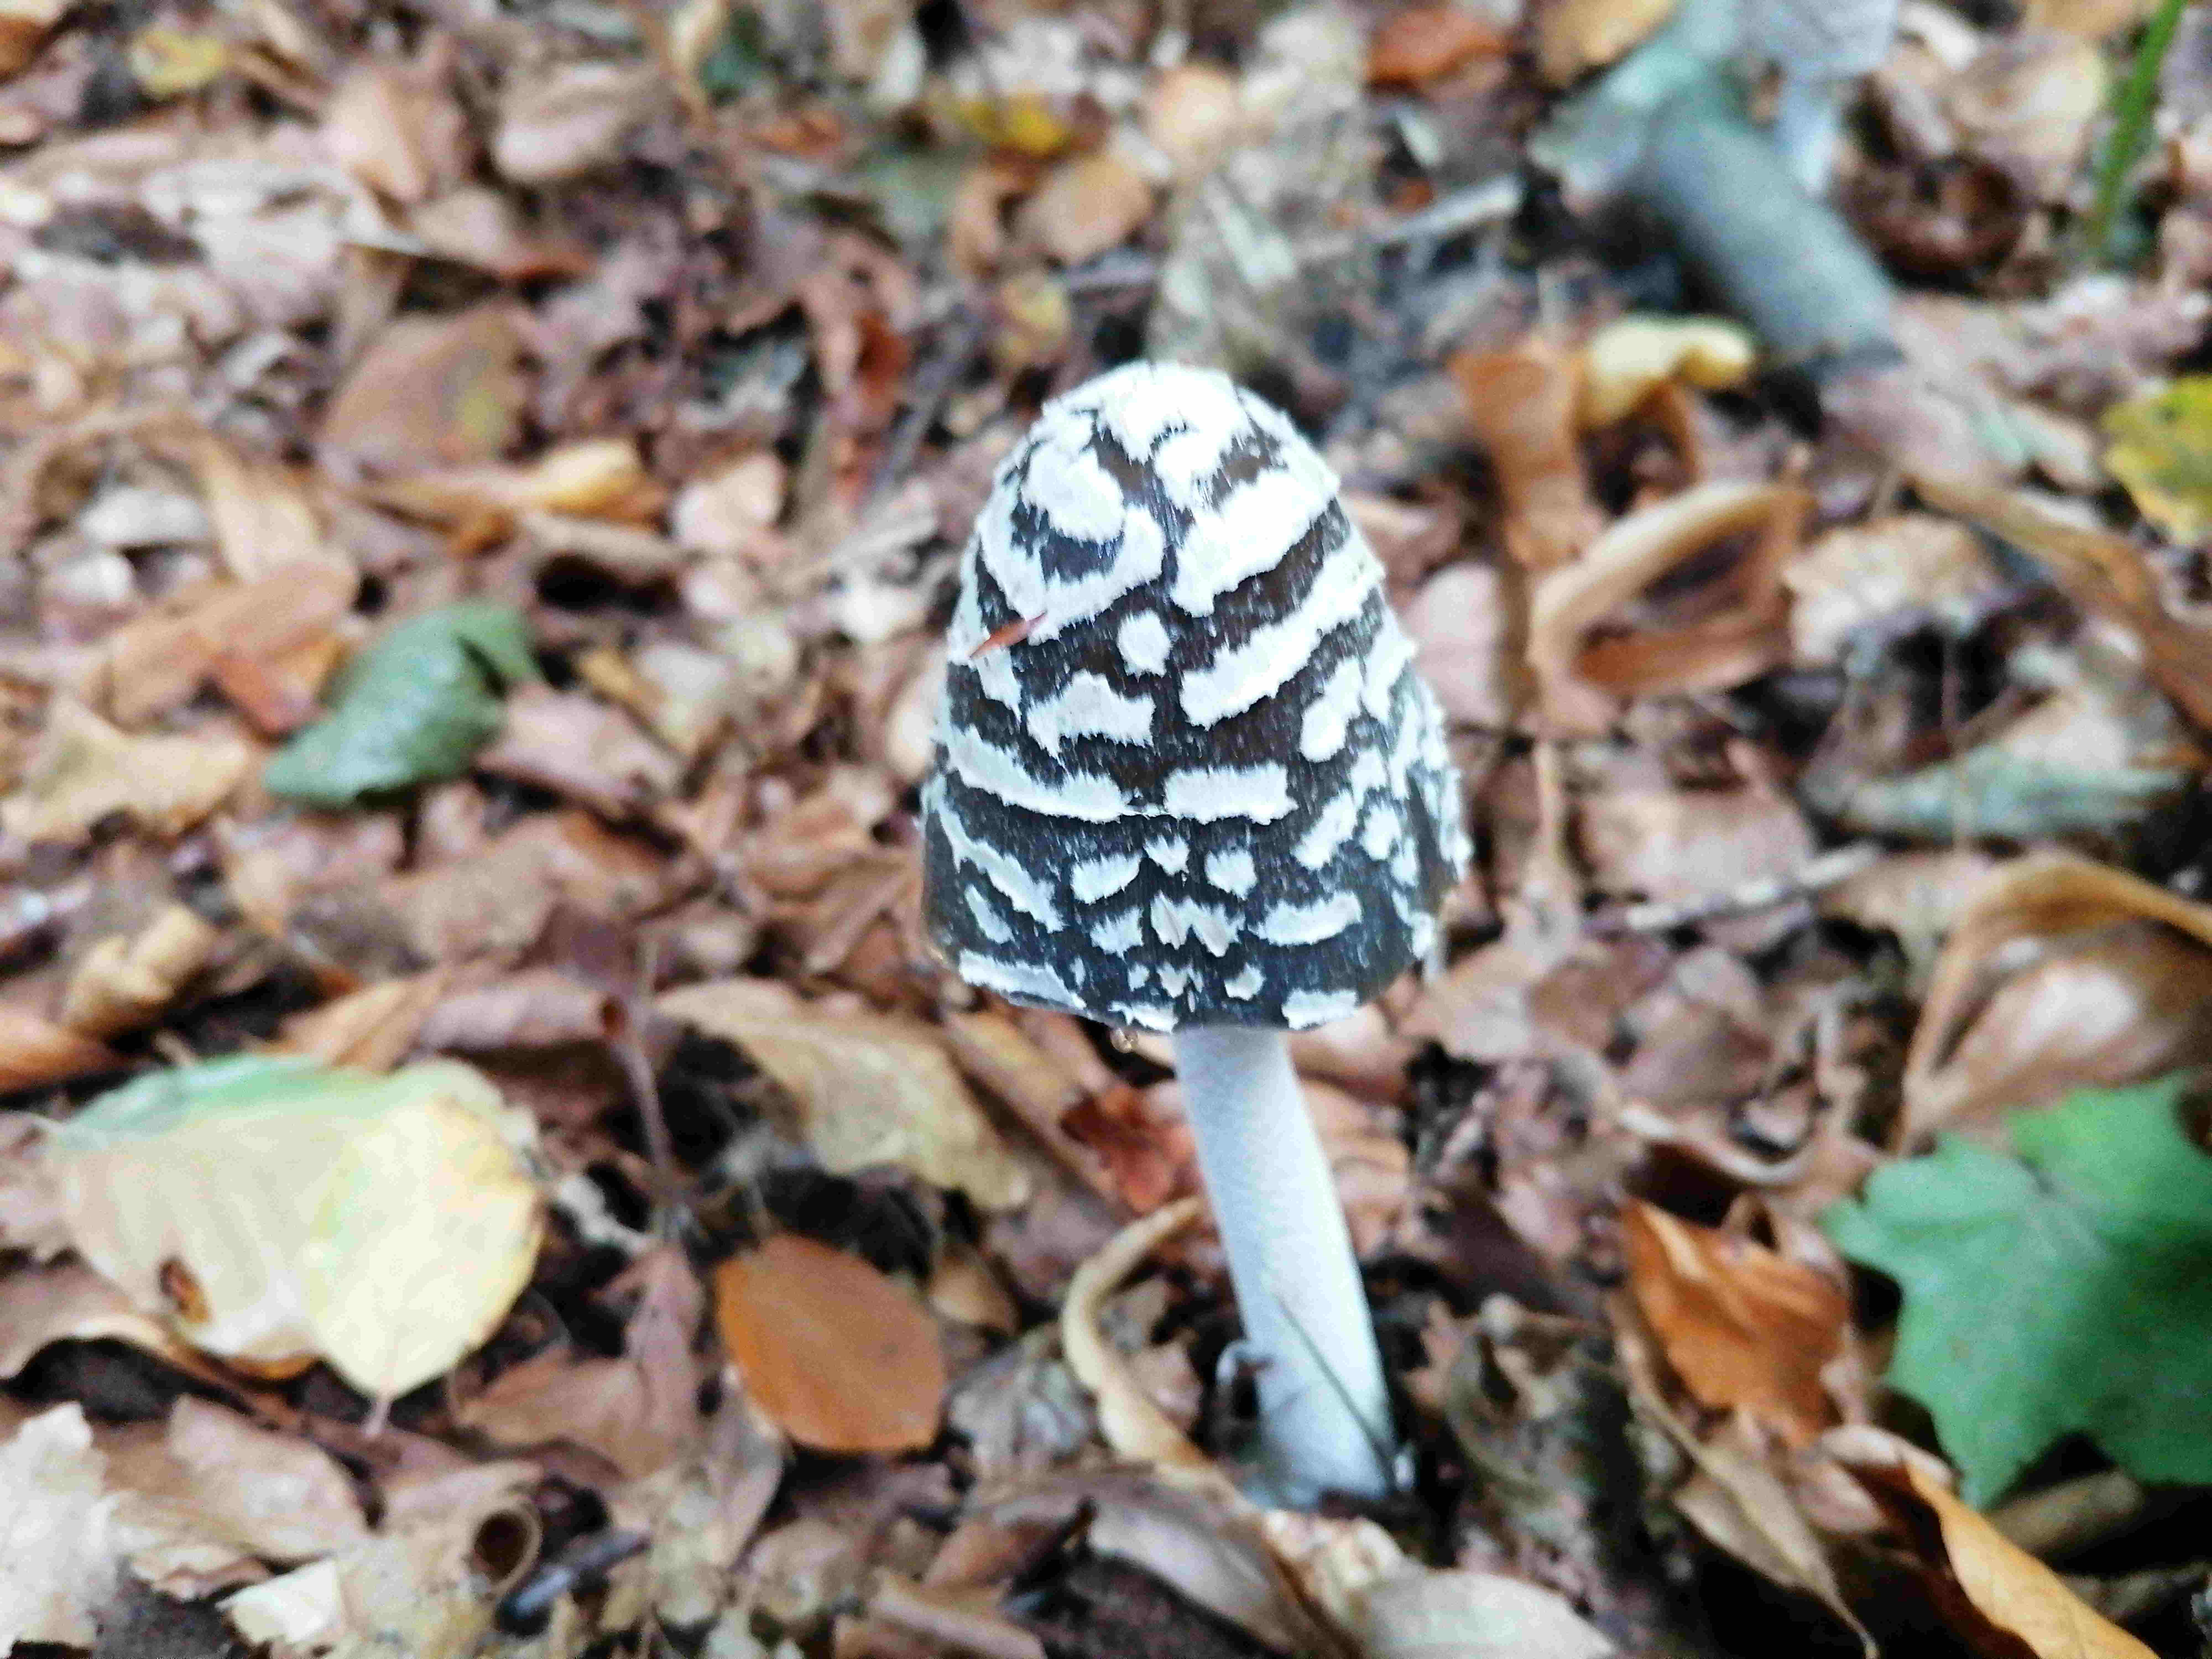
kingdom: Fungi
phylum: Basidiomycota
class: Agaricomycetes
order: Agaricales
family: Psathyrellaceae
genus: Coprinopsis
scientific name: Coprinopsis picacea
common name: skade-blækhat
